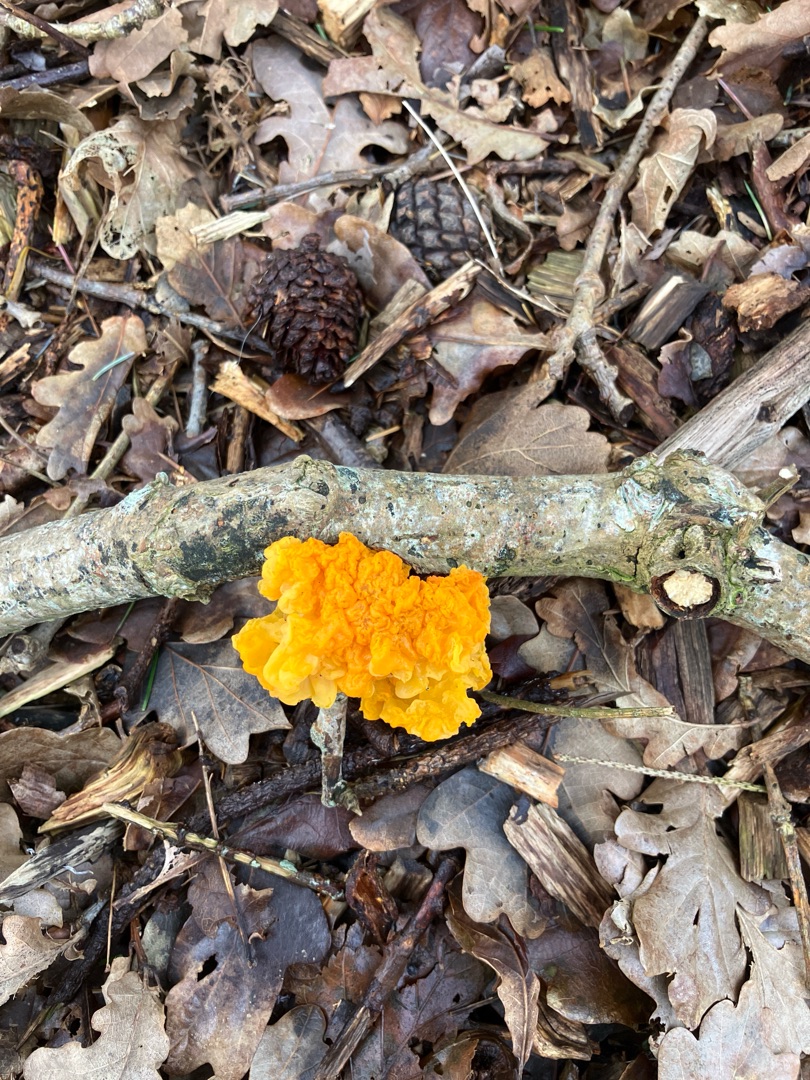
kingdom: Fungi
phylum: Basidiomycota
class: Tremellomycetes
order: Tremellales
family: Tremellaceae
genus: Tremella
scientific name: Tremella mesenterica
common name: Gul bævresvamp
